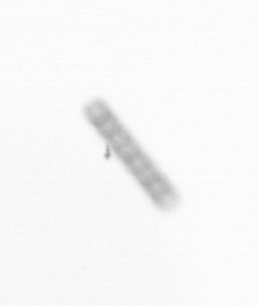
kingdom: Chromista
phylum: Ochrophyta
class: Bacillariophyceae
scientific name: Bacillariophyceae
